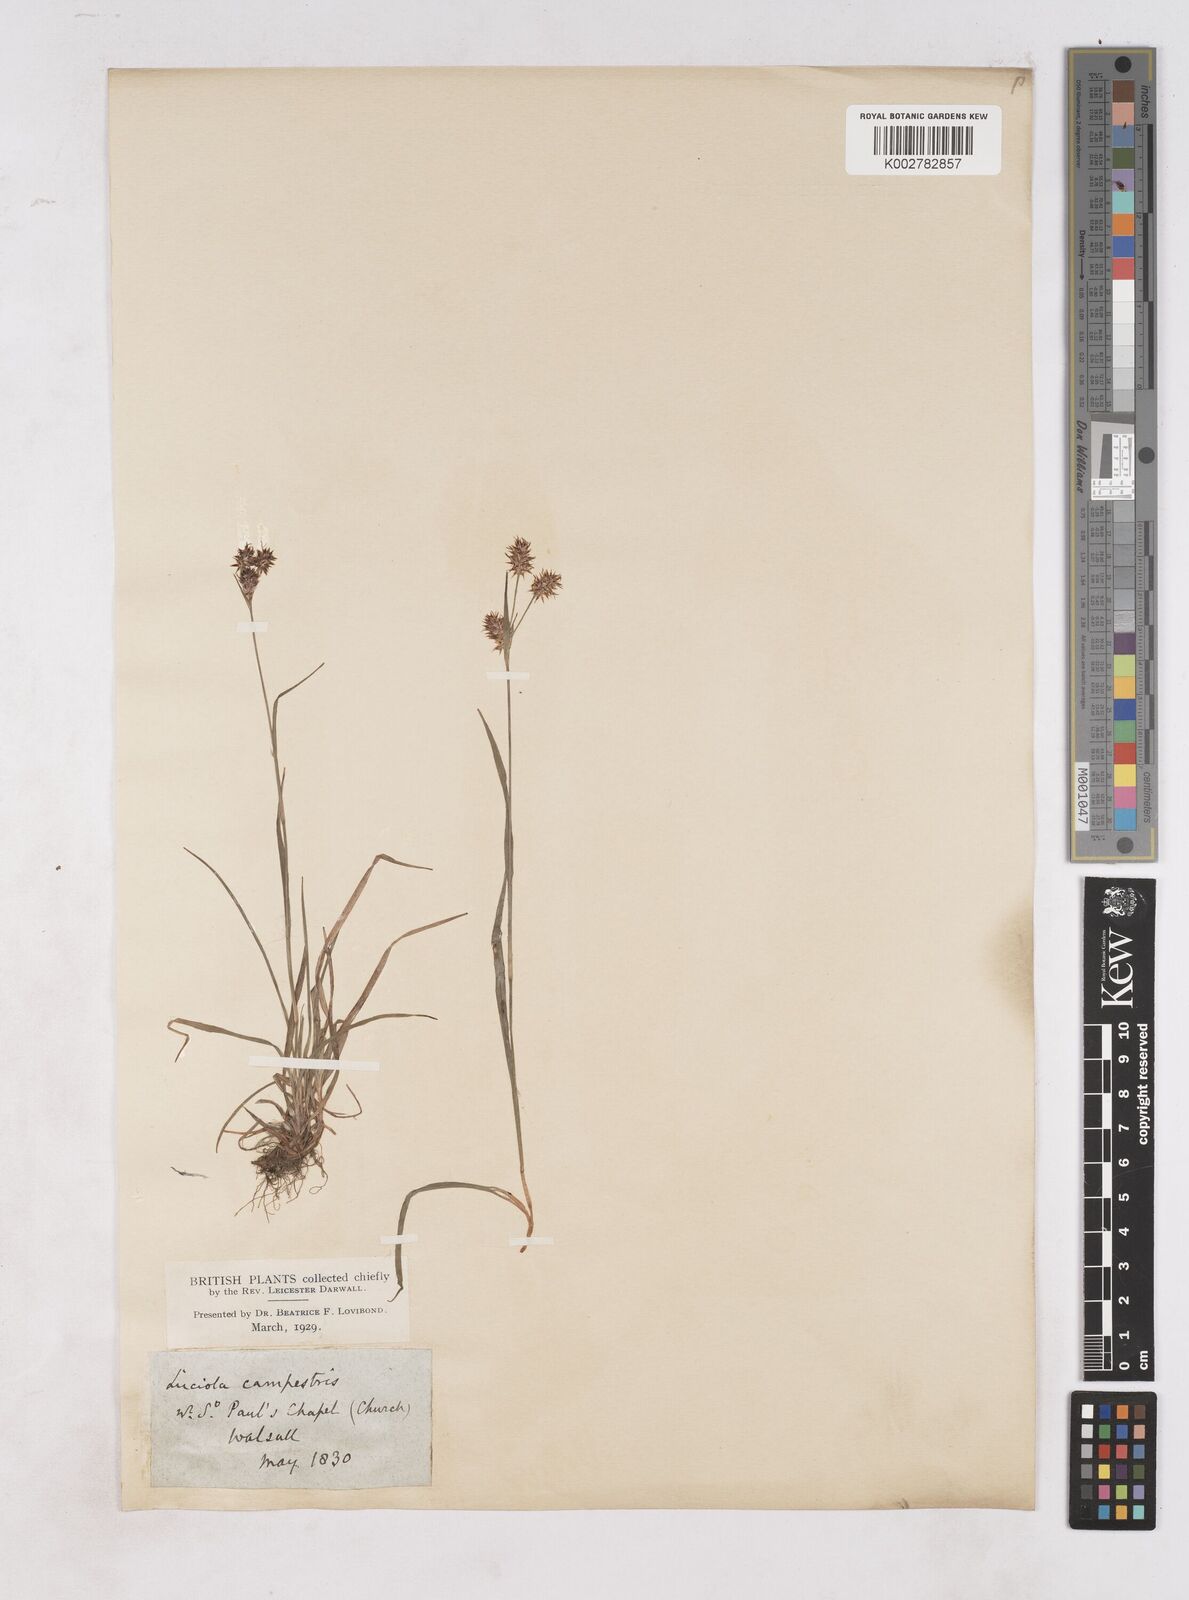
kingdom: Plantae
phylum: Tracheophyta
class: Liliopsida
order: Poales
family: Juncaceae
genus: Luzula
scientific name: Luzula campestris
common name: Field wood-rush
